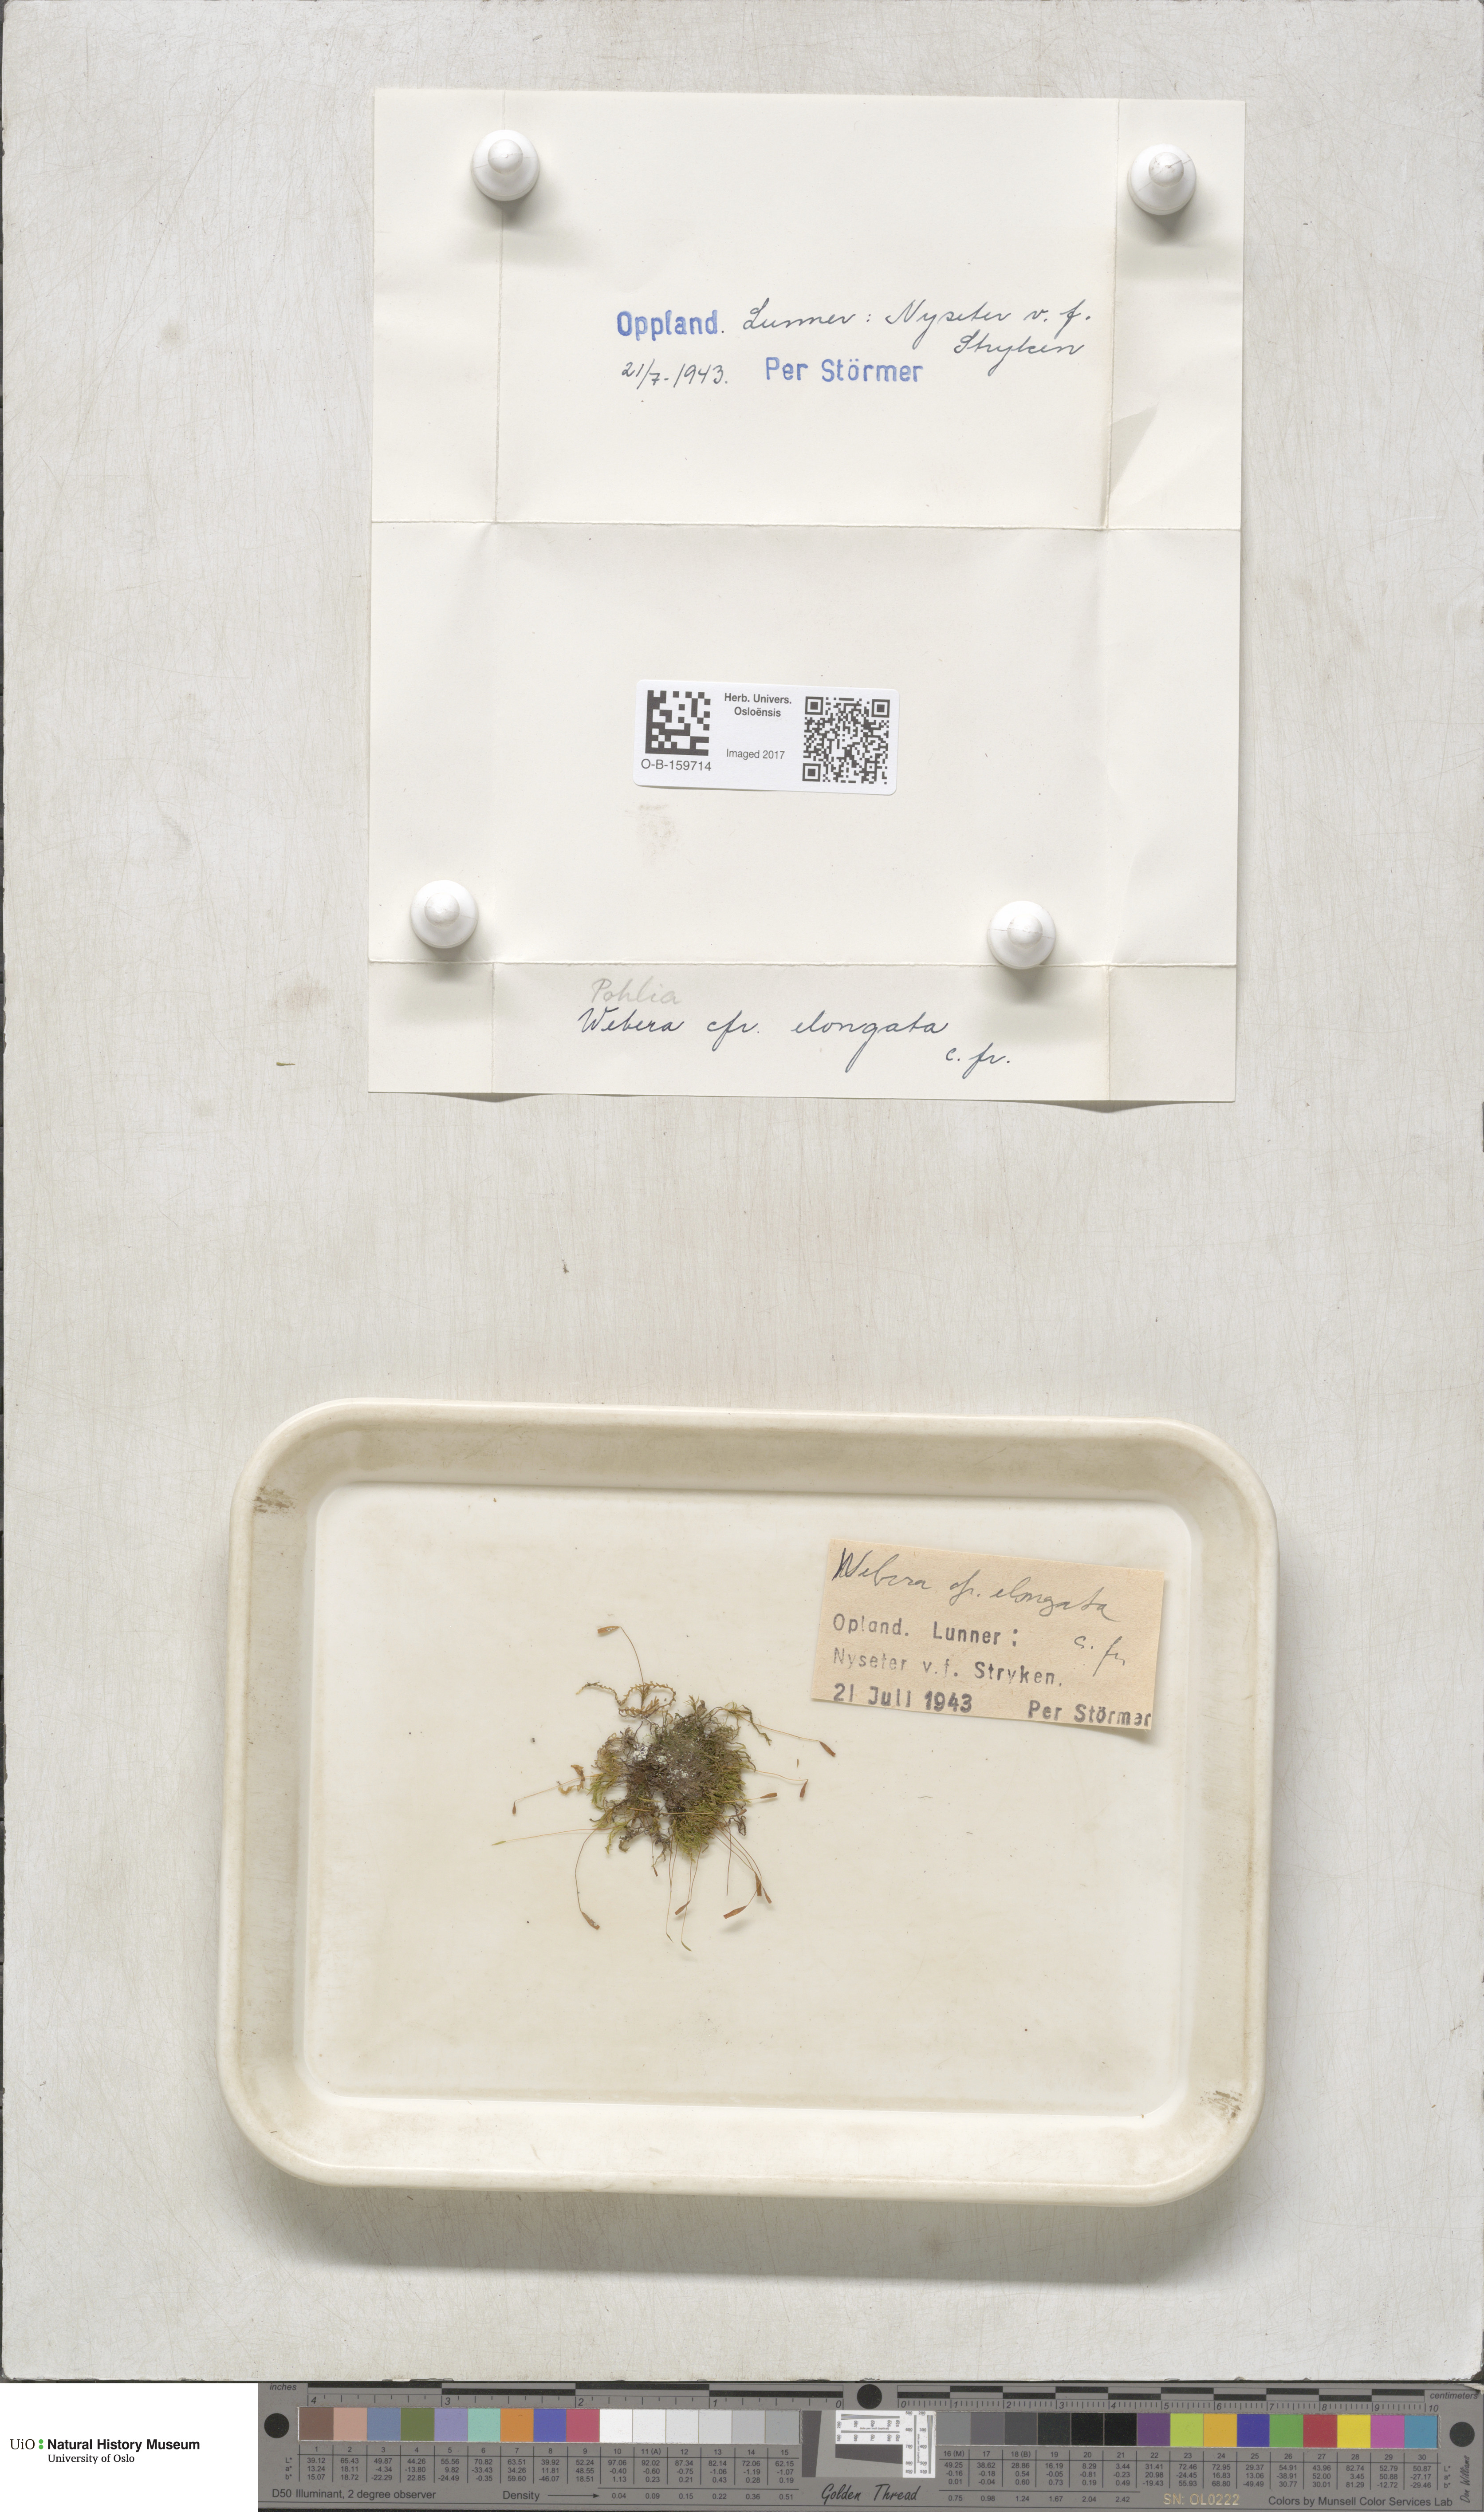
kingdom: Plantae
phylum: Bryophyta
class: Bryopsida
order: Bryales
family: Mniaceae
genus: Pohlia
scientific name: Pohlia elongata
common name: Long-fruited thread-moss
